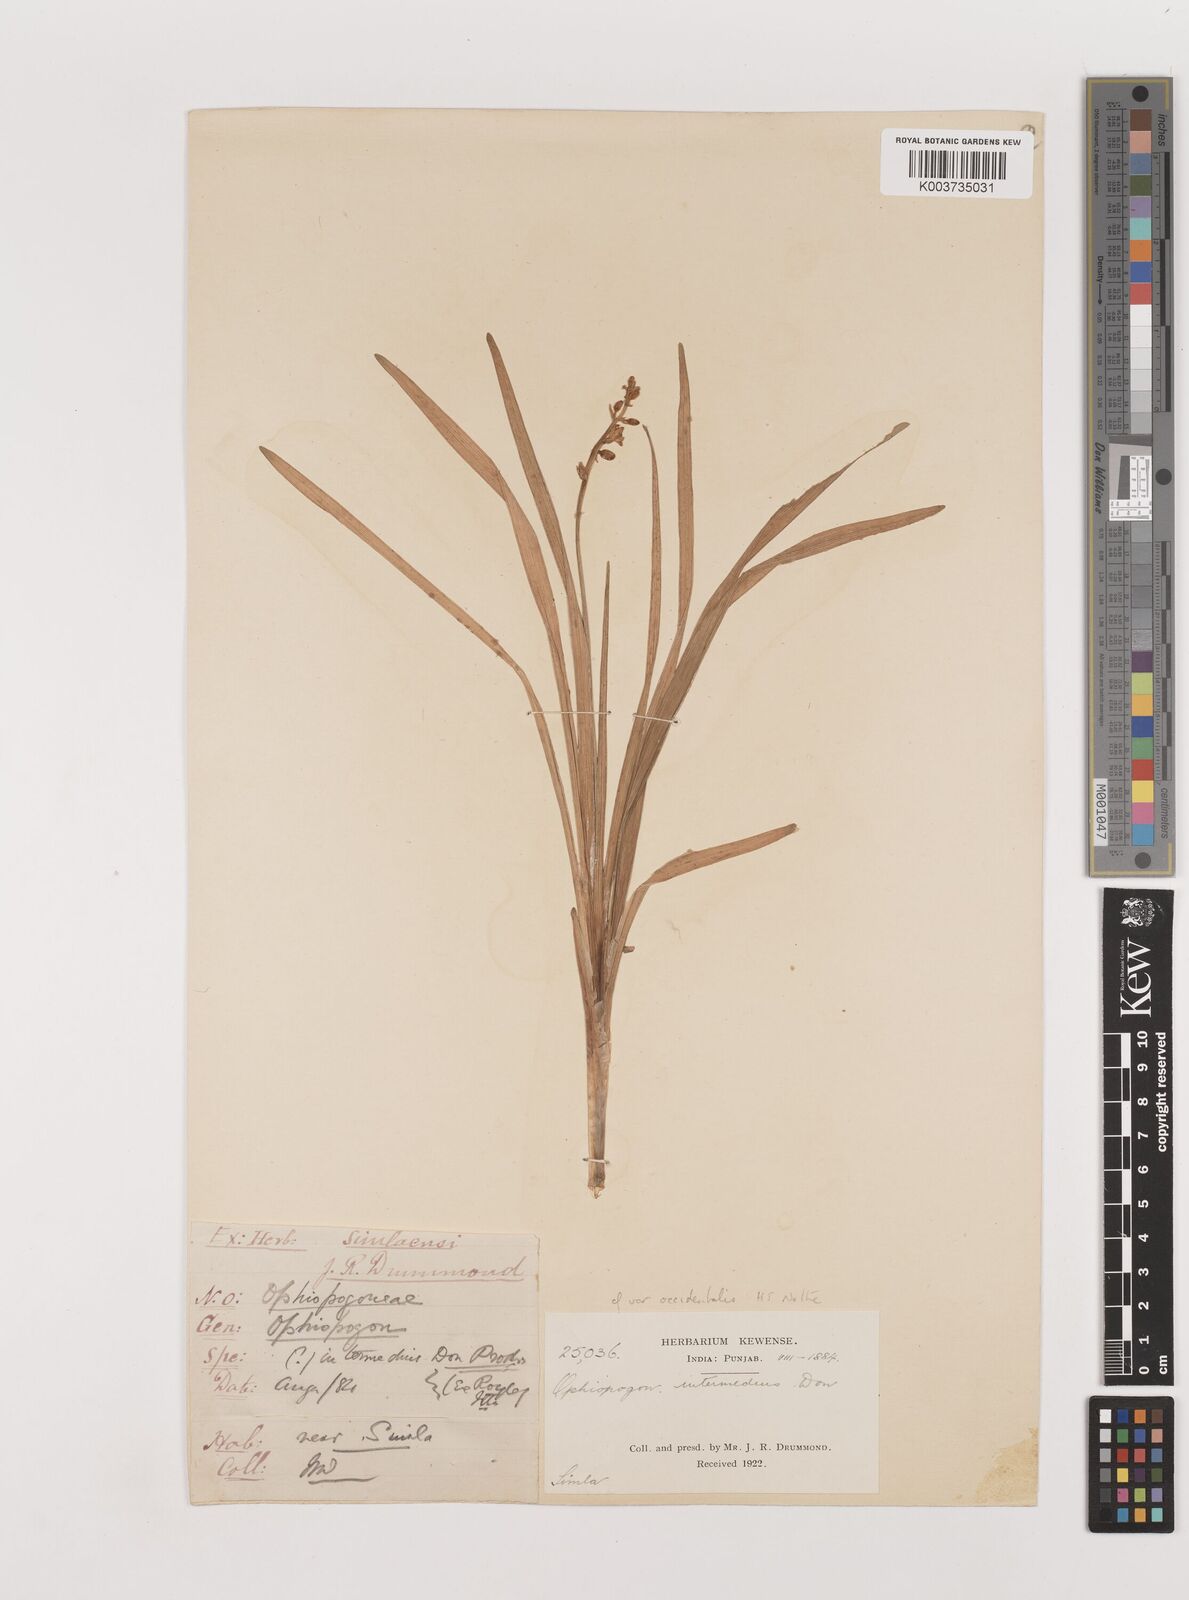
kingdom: Plantae
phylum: Tracheophyta
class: Liliopsida
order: Asparagales
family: Asparagaceae
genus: Ophiopogon
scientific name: Ophiopogon intermedius
